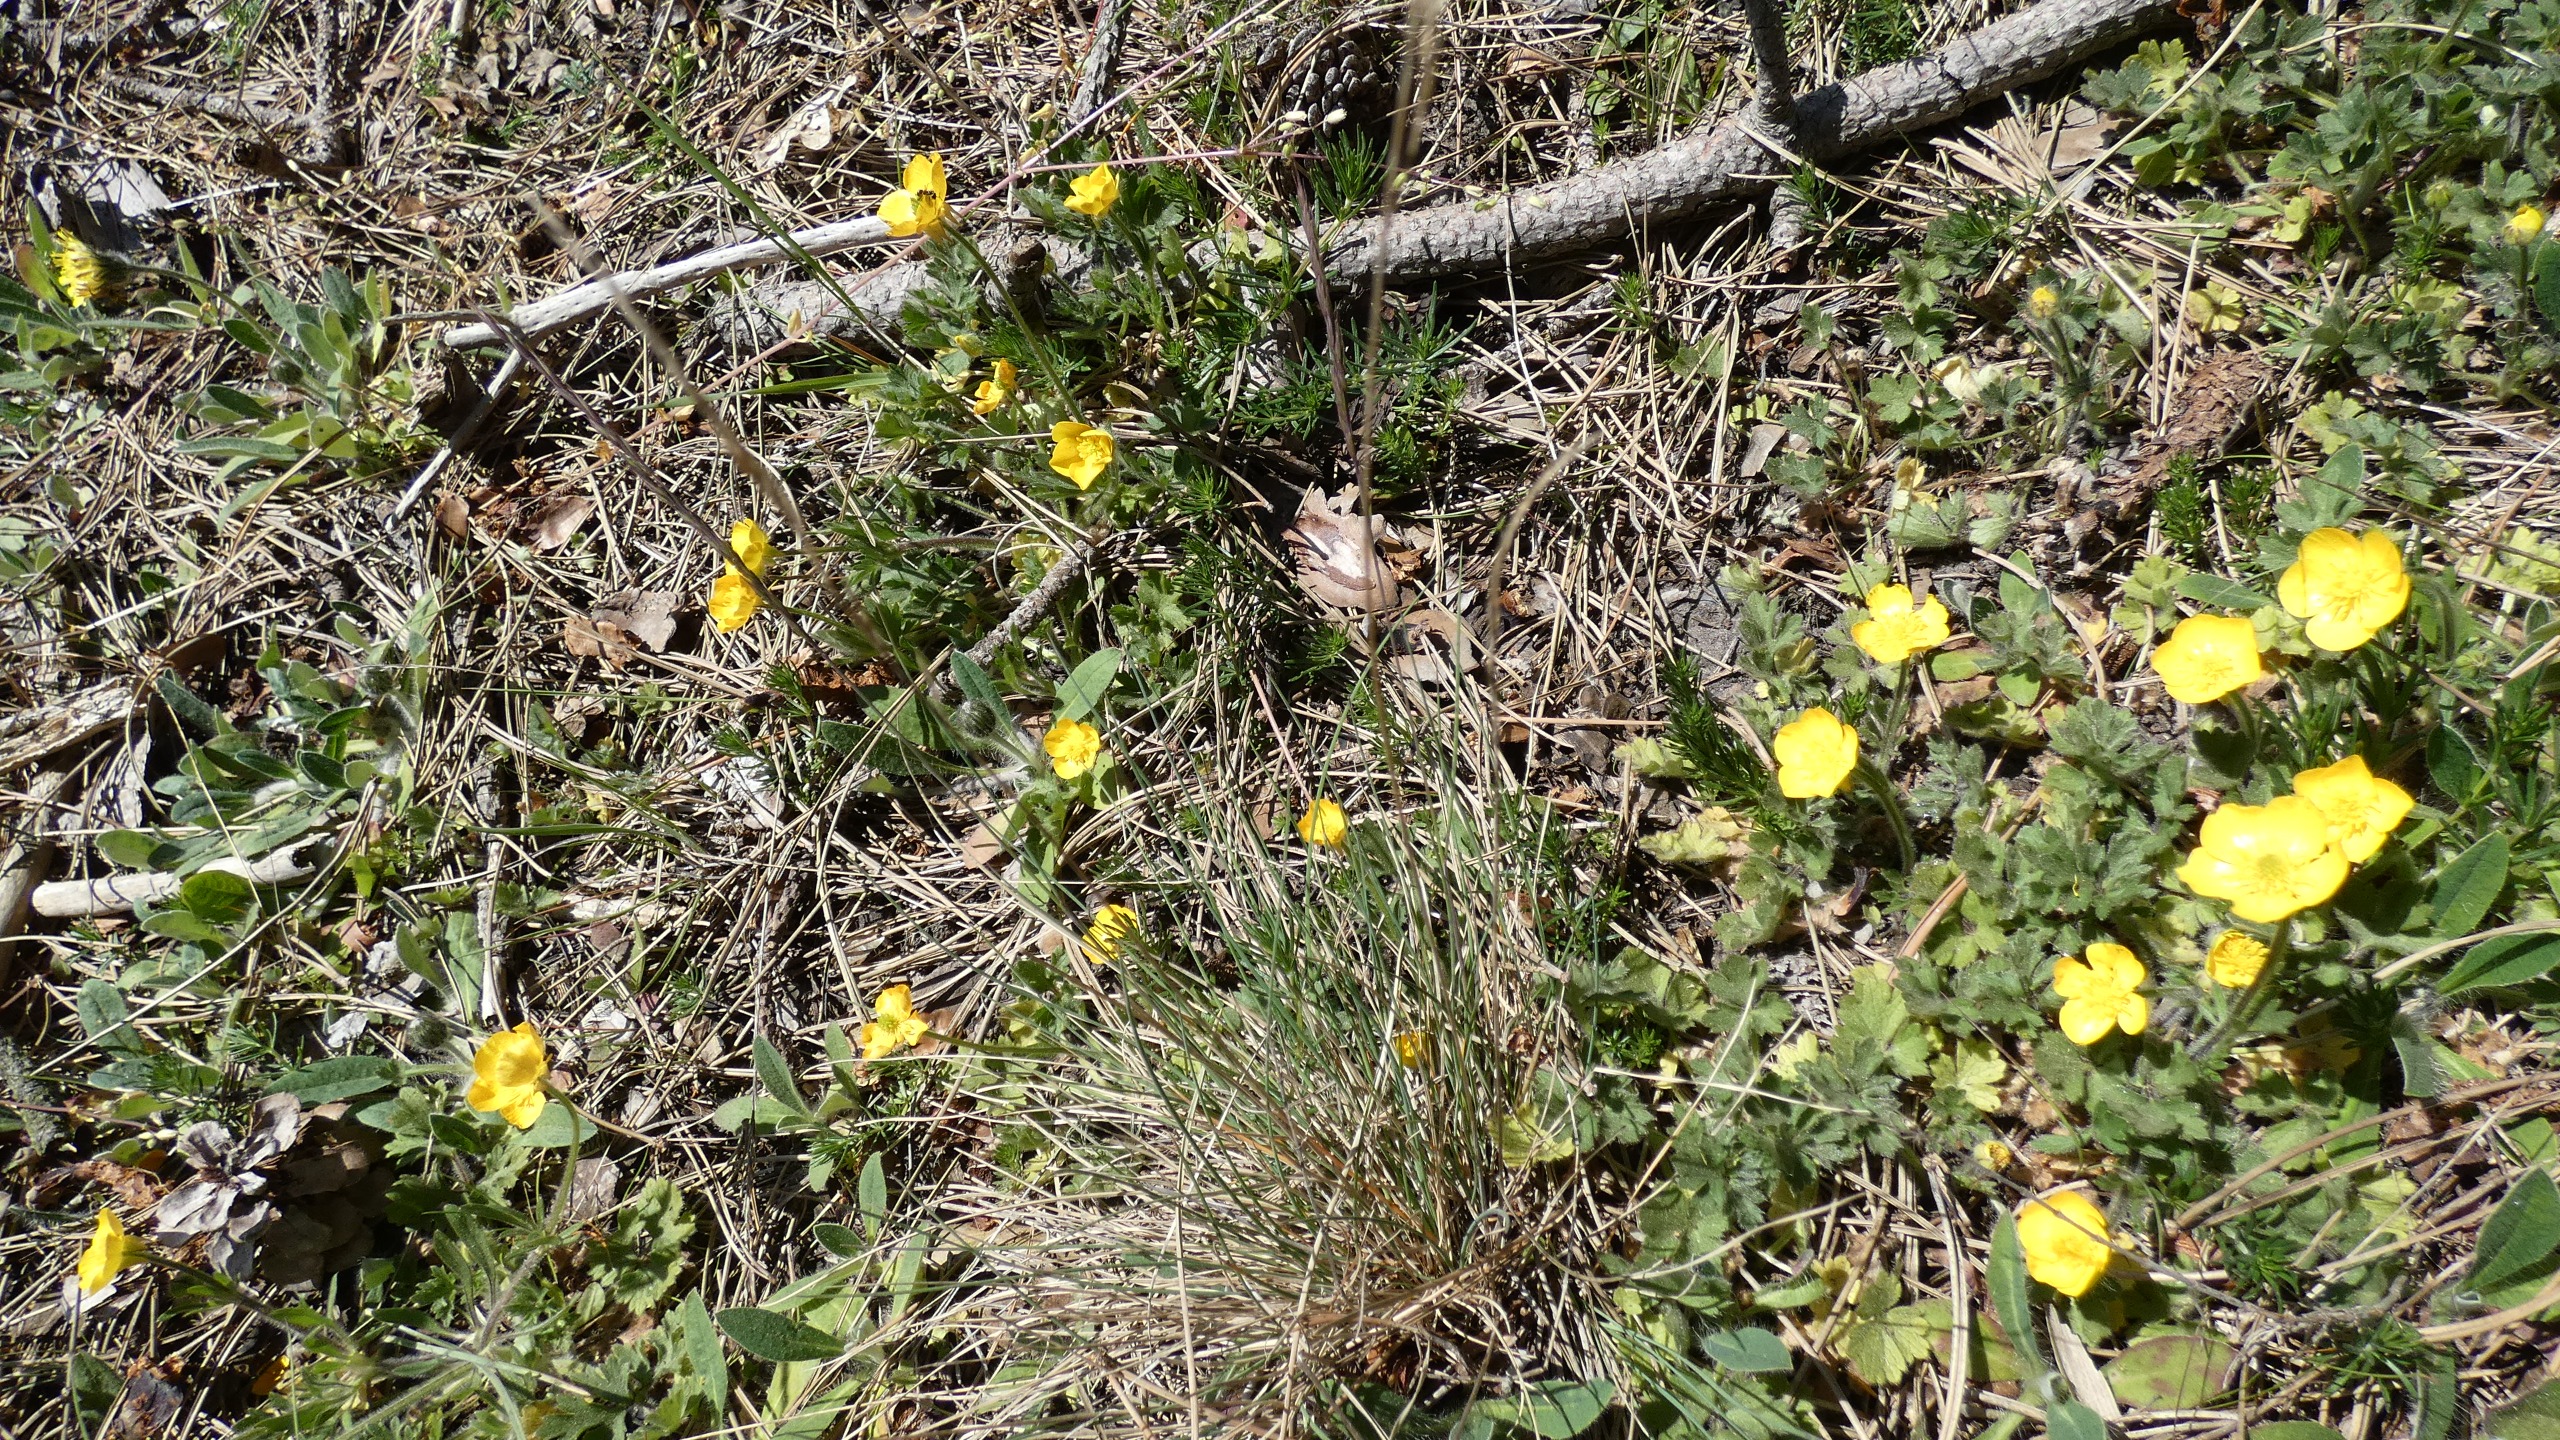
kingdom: Plantae
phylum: Tracheophyta
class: Magnoliopsida
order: Ranunculales
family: Ranunculaceae
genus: Ranunculus
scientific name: Ranunculus bulbosus
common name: Knold-ranunkel
